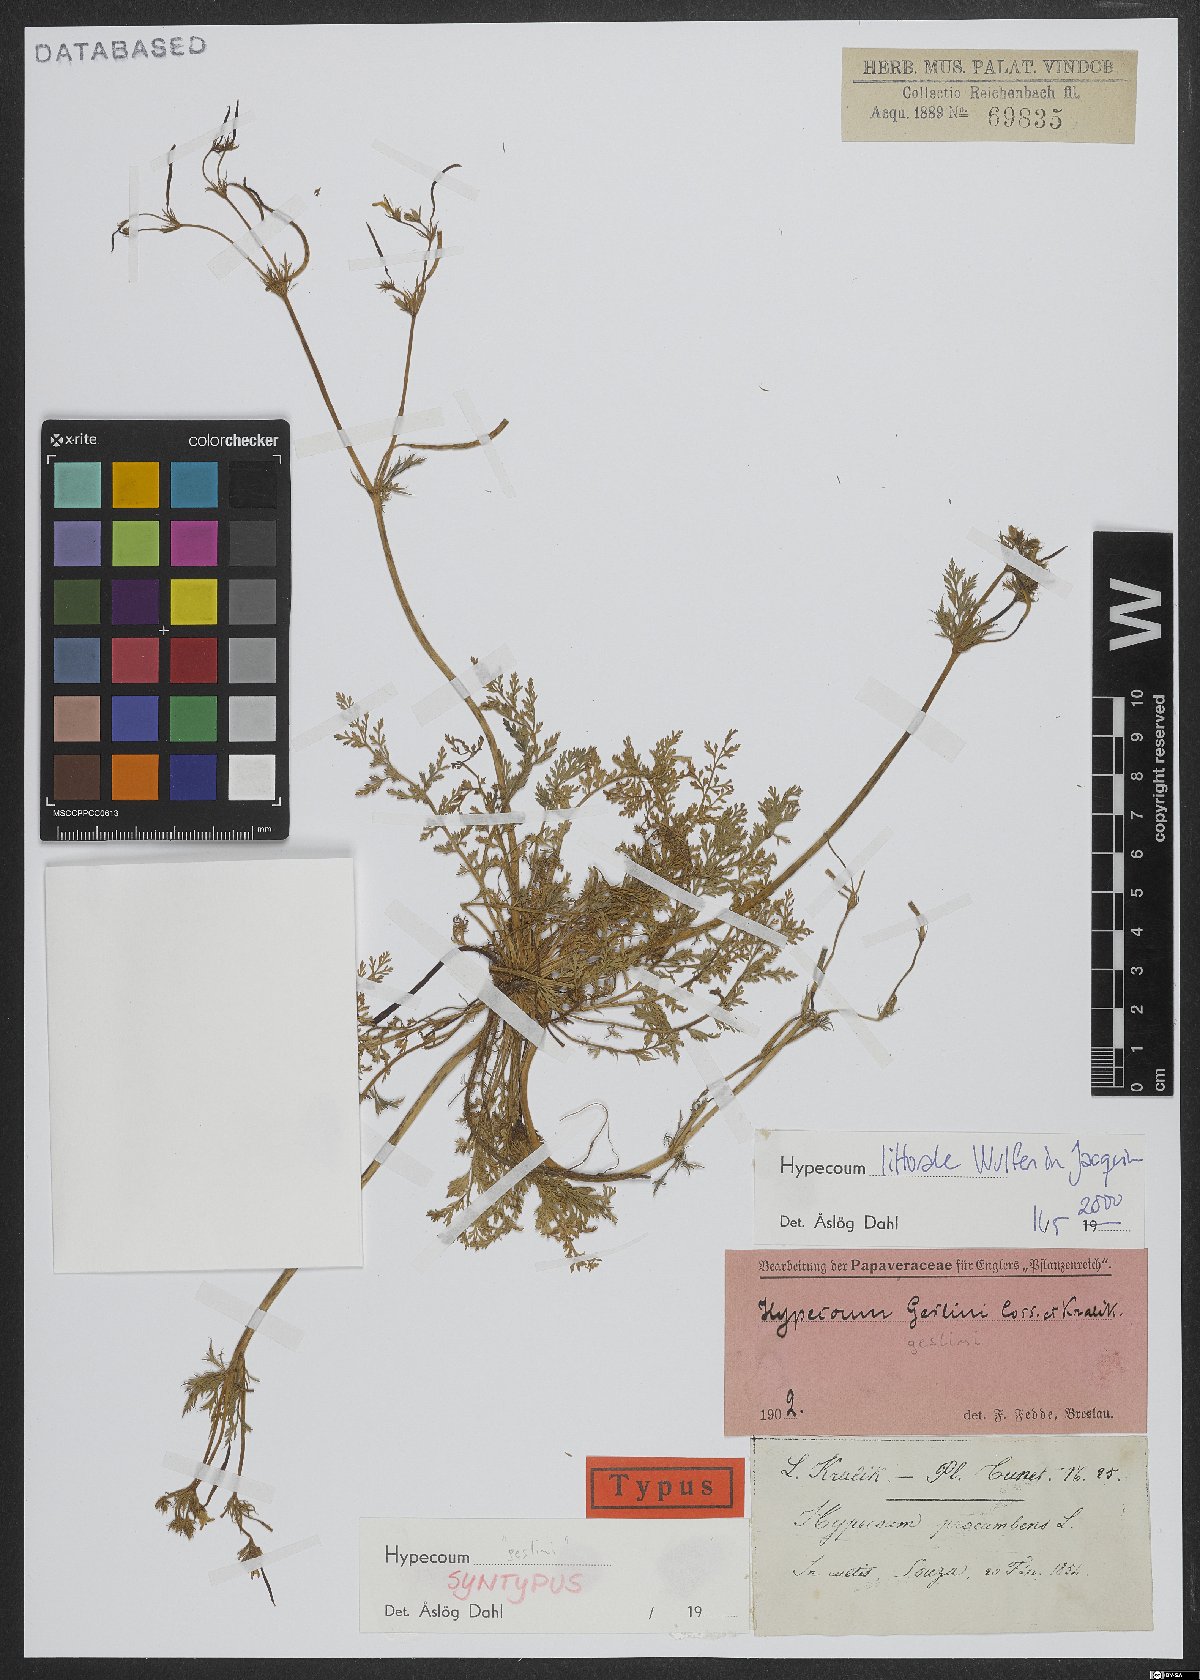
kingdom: Plantae
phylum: Tracheophyta
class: Magnoliopsida
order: Ranunculales
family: Papaveraceae
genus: Hypecoum
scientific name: Hypecoum littorale
